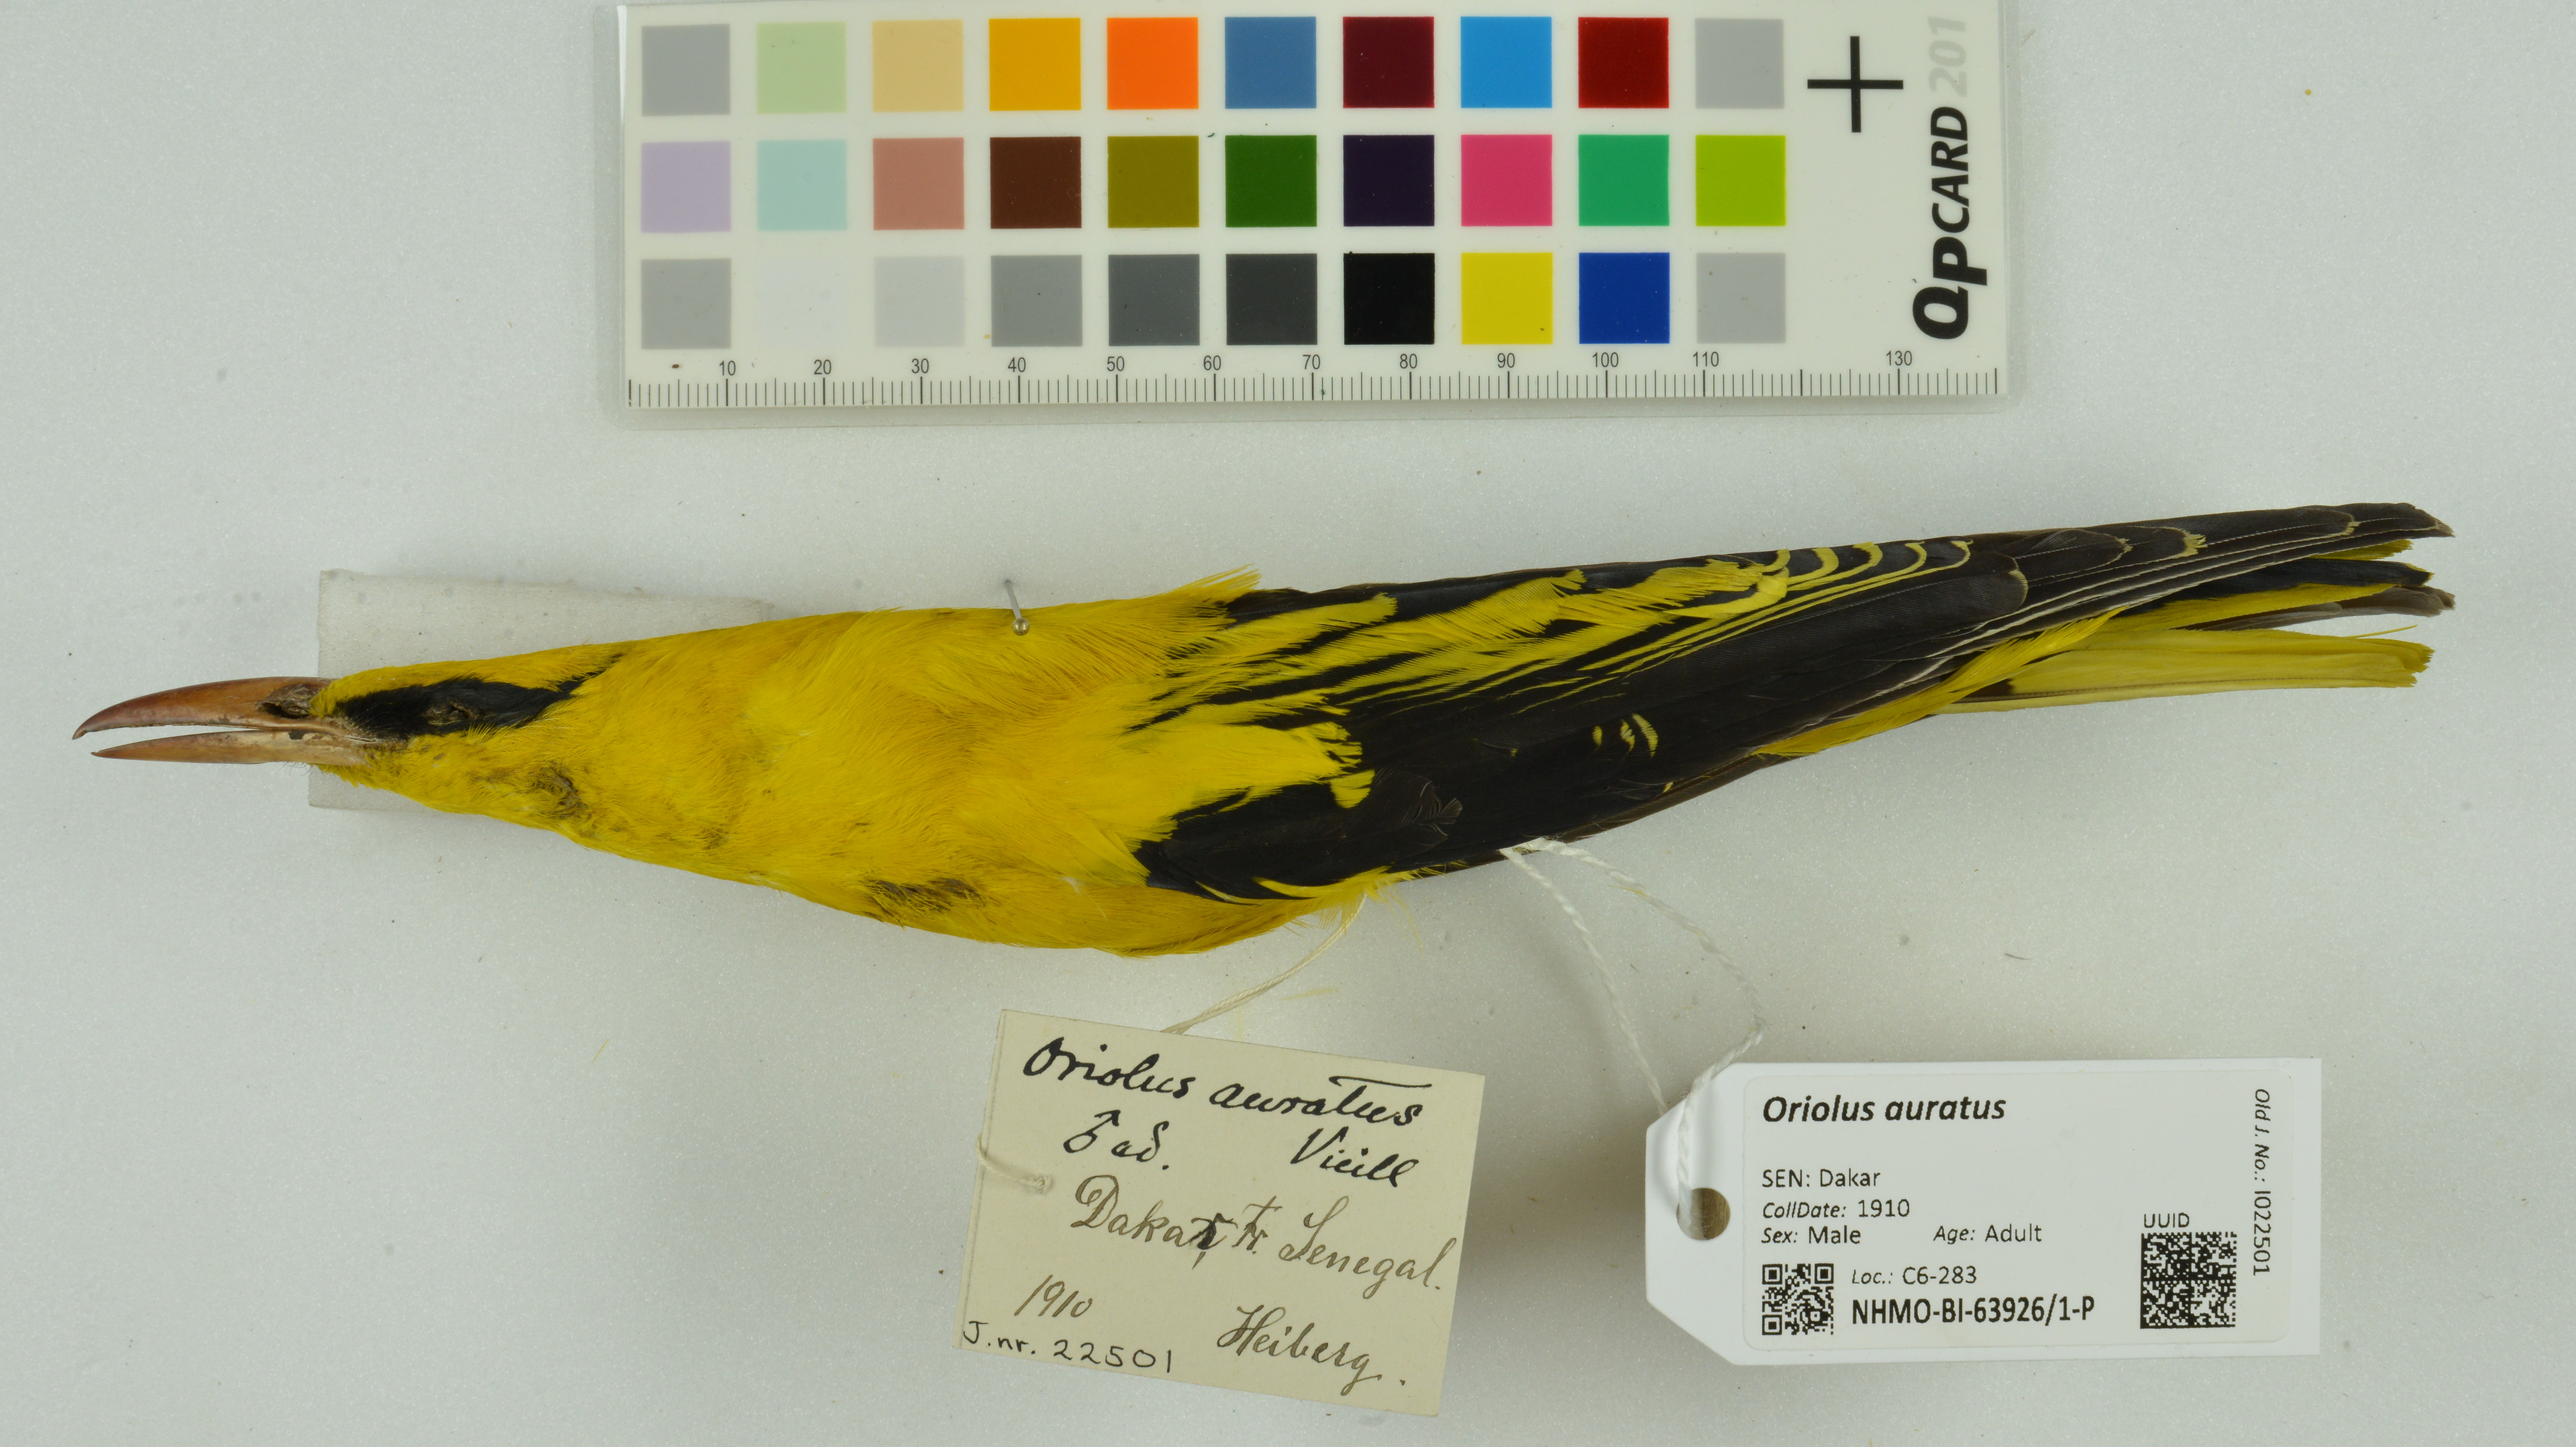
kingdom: Animalia
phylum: Chordata
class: Aves
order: Passeriformes
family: Oriolidae
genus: Oriolus
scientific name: Oriolus auratus
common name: African golden oriole
